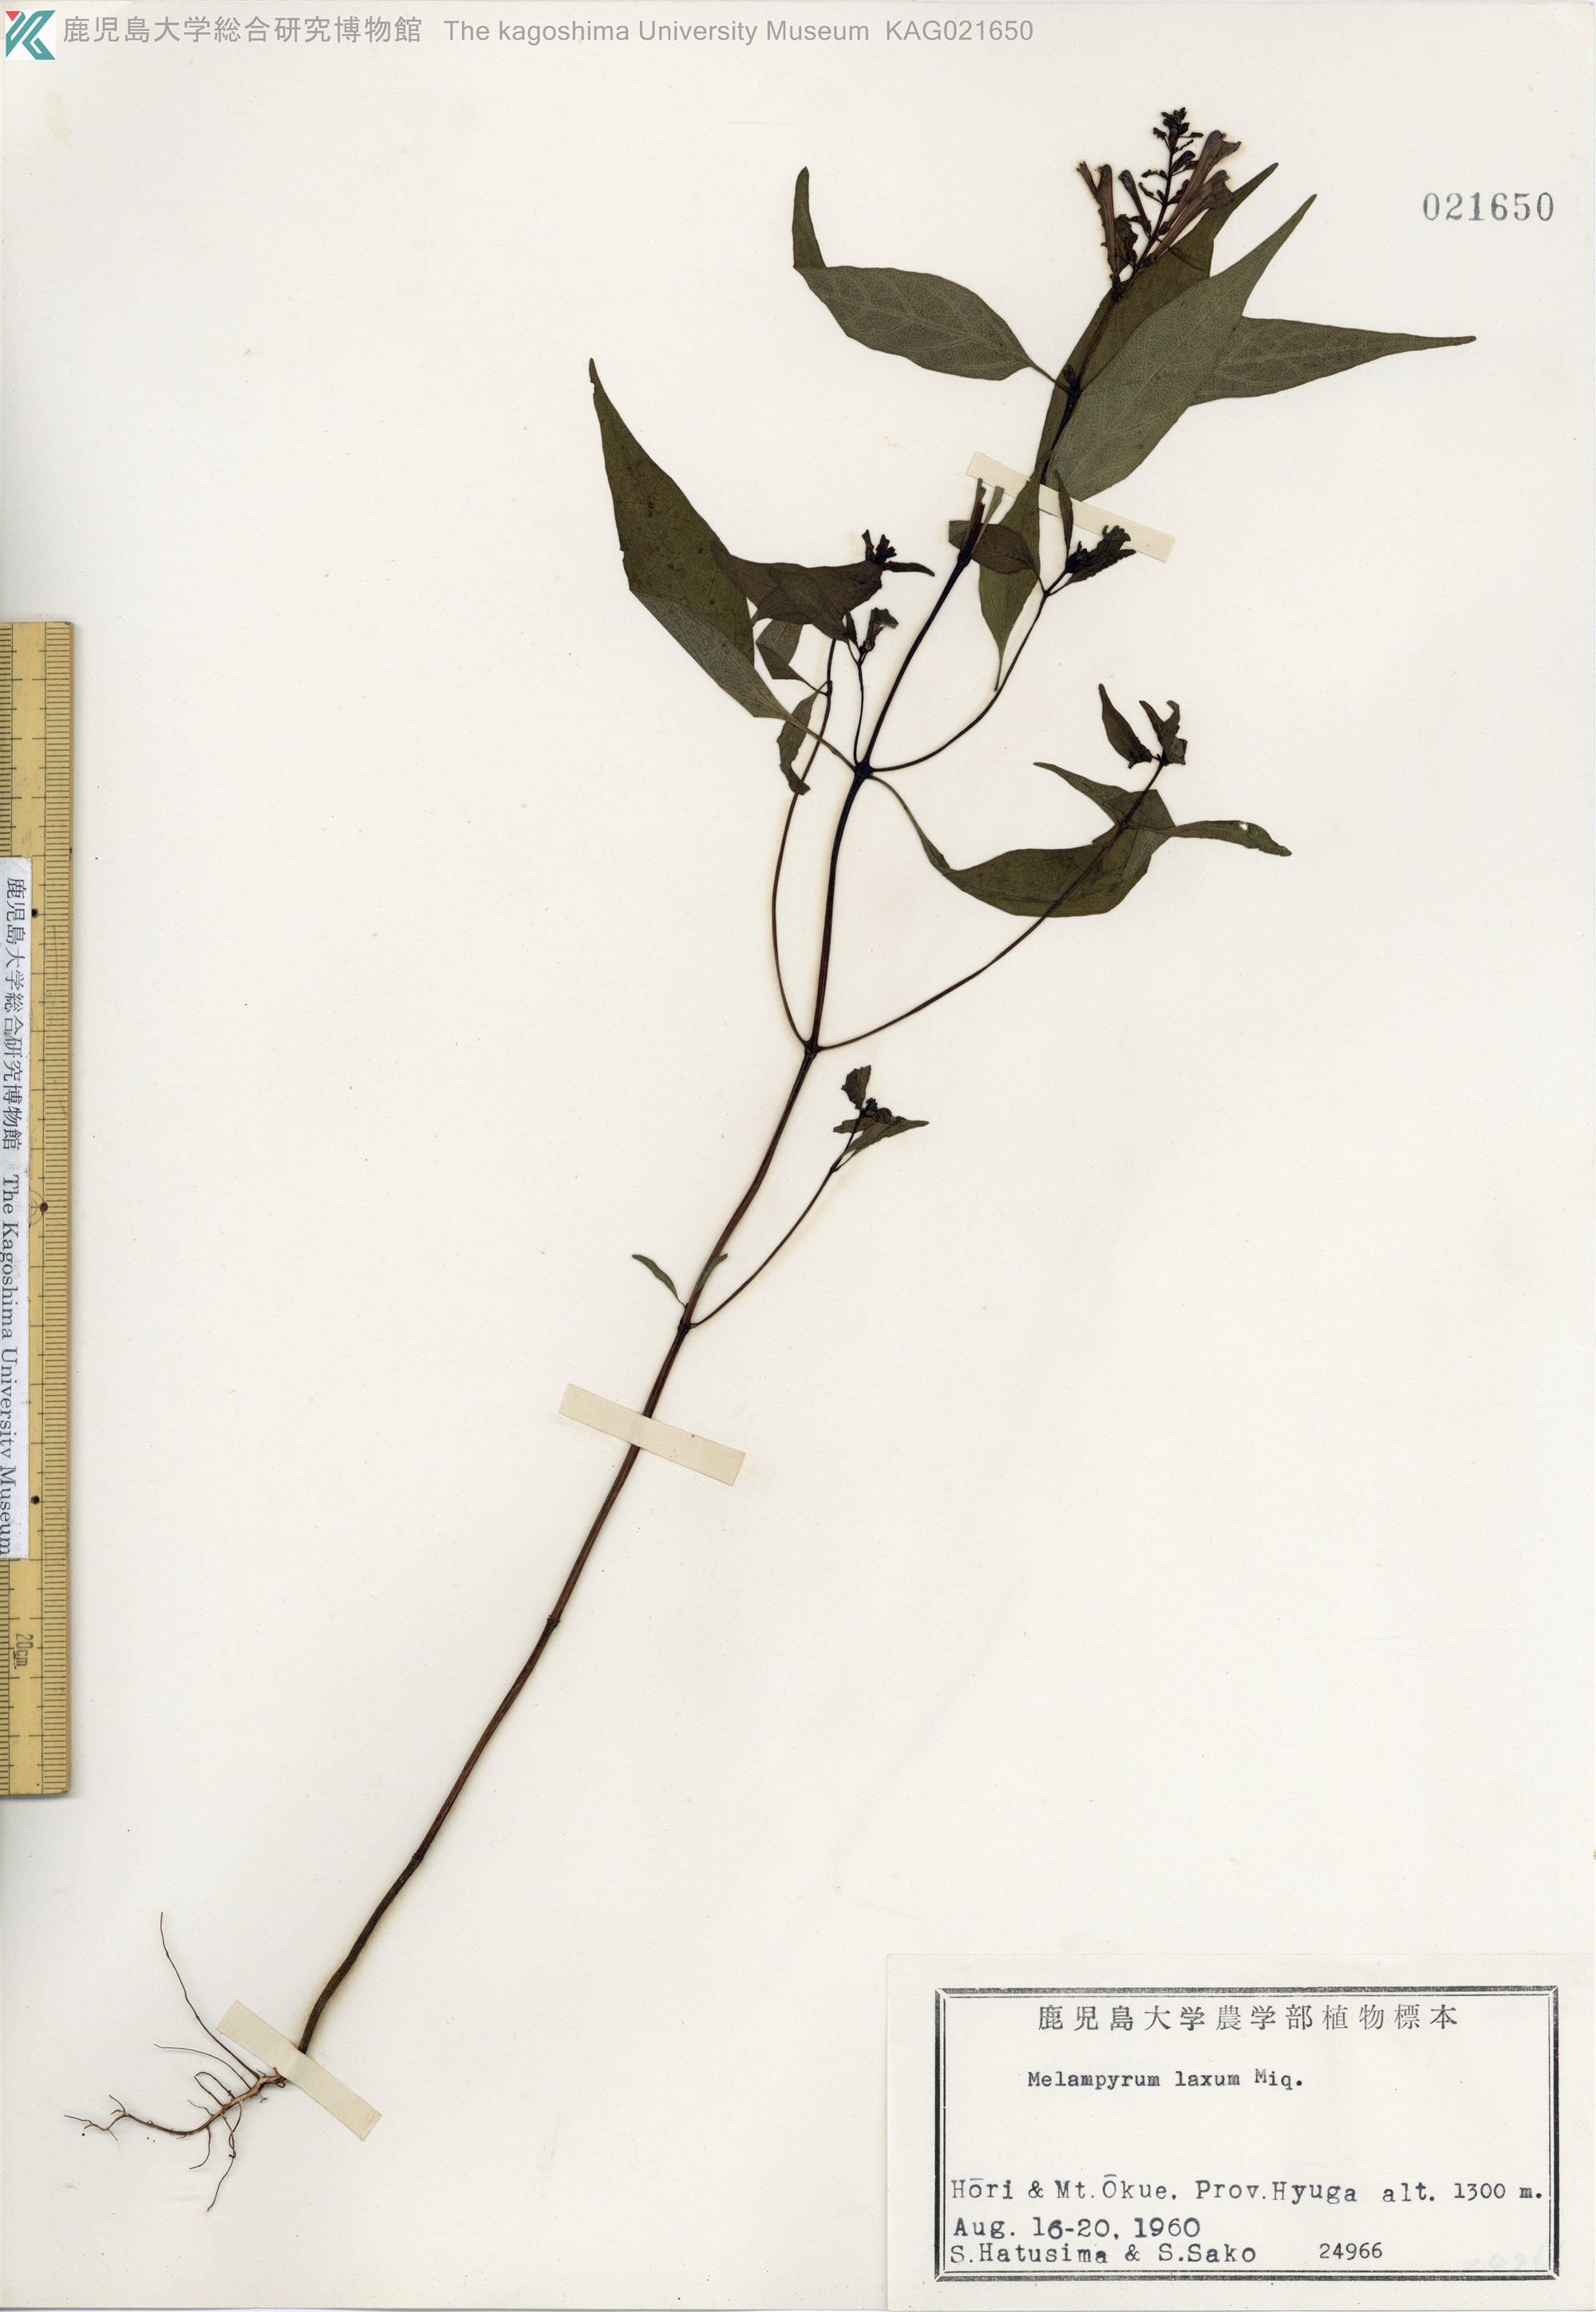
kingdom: Plantae
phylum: Tracheophyta
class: Magnoliopsida
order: Lamiales
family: Orobanchaceae
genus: Melampyrum
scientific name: Melampyrum laxum
